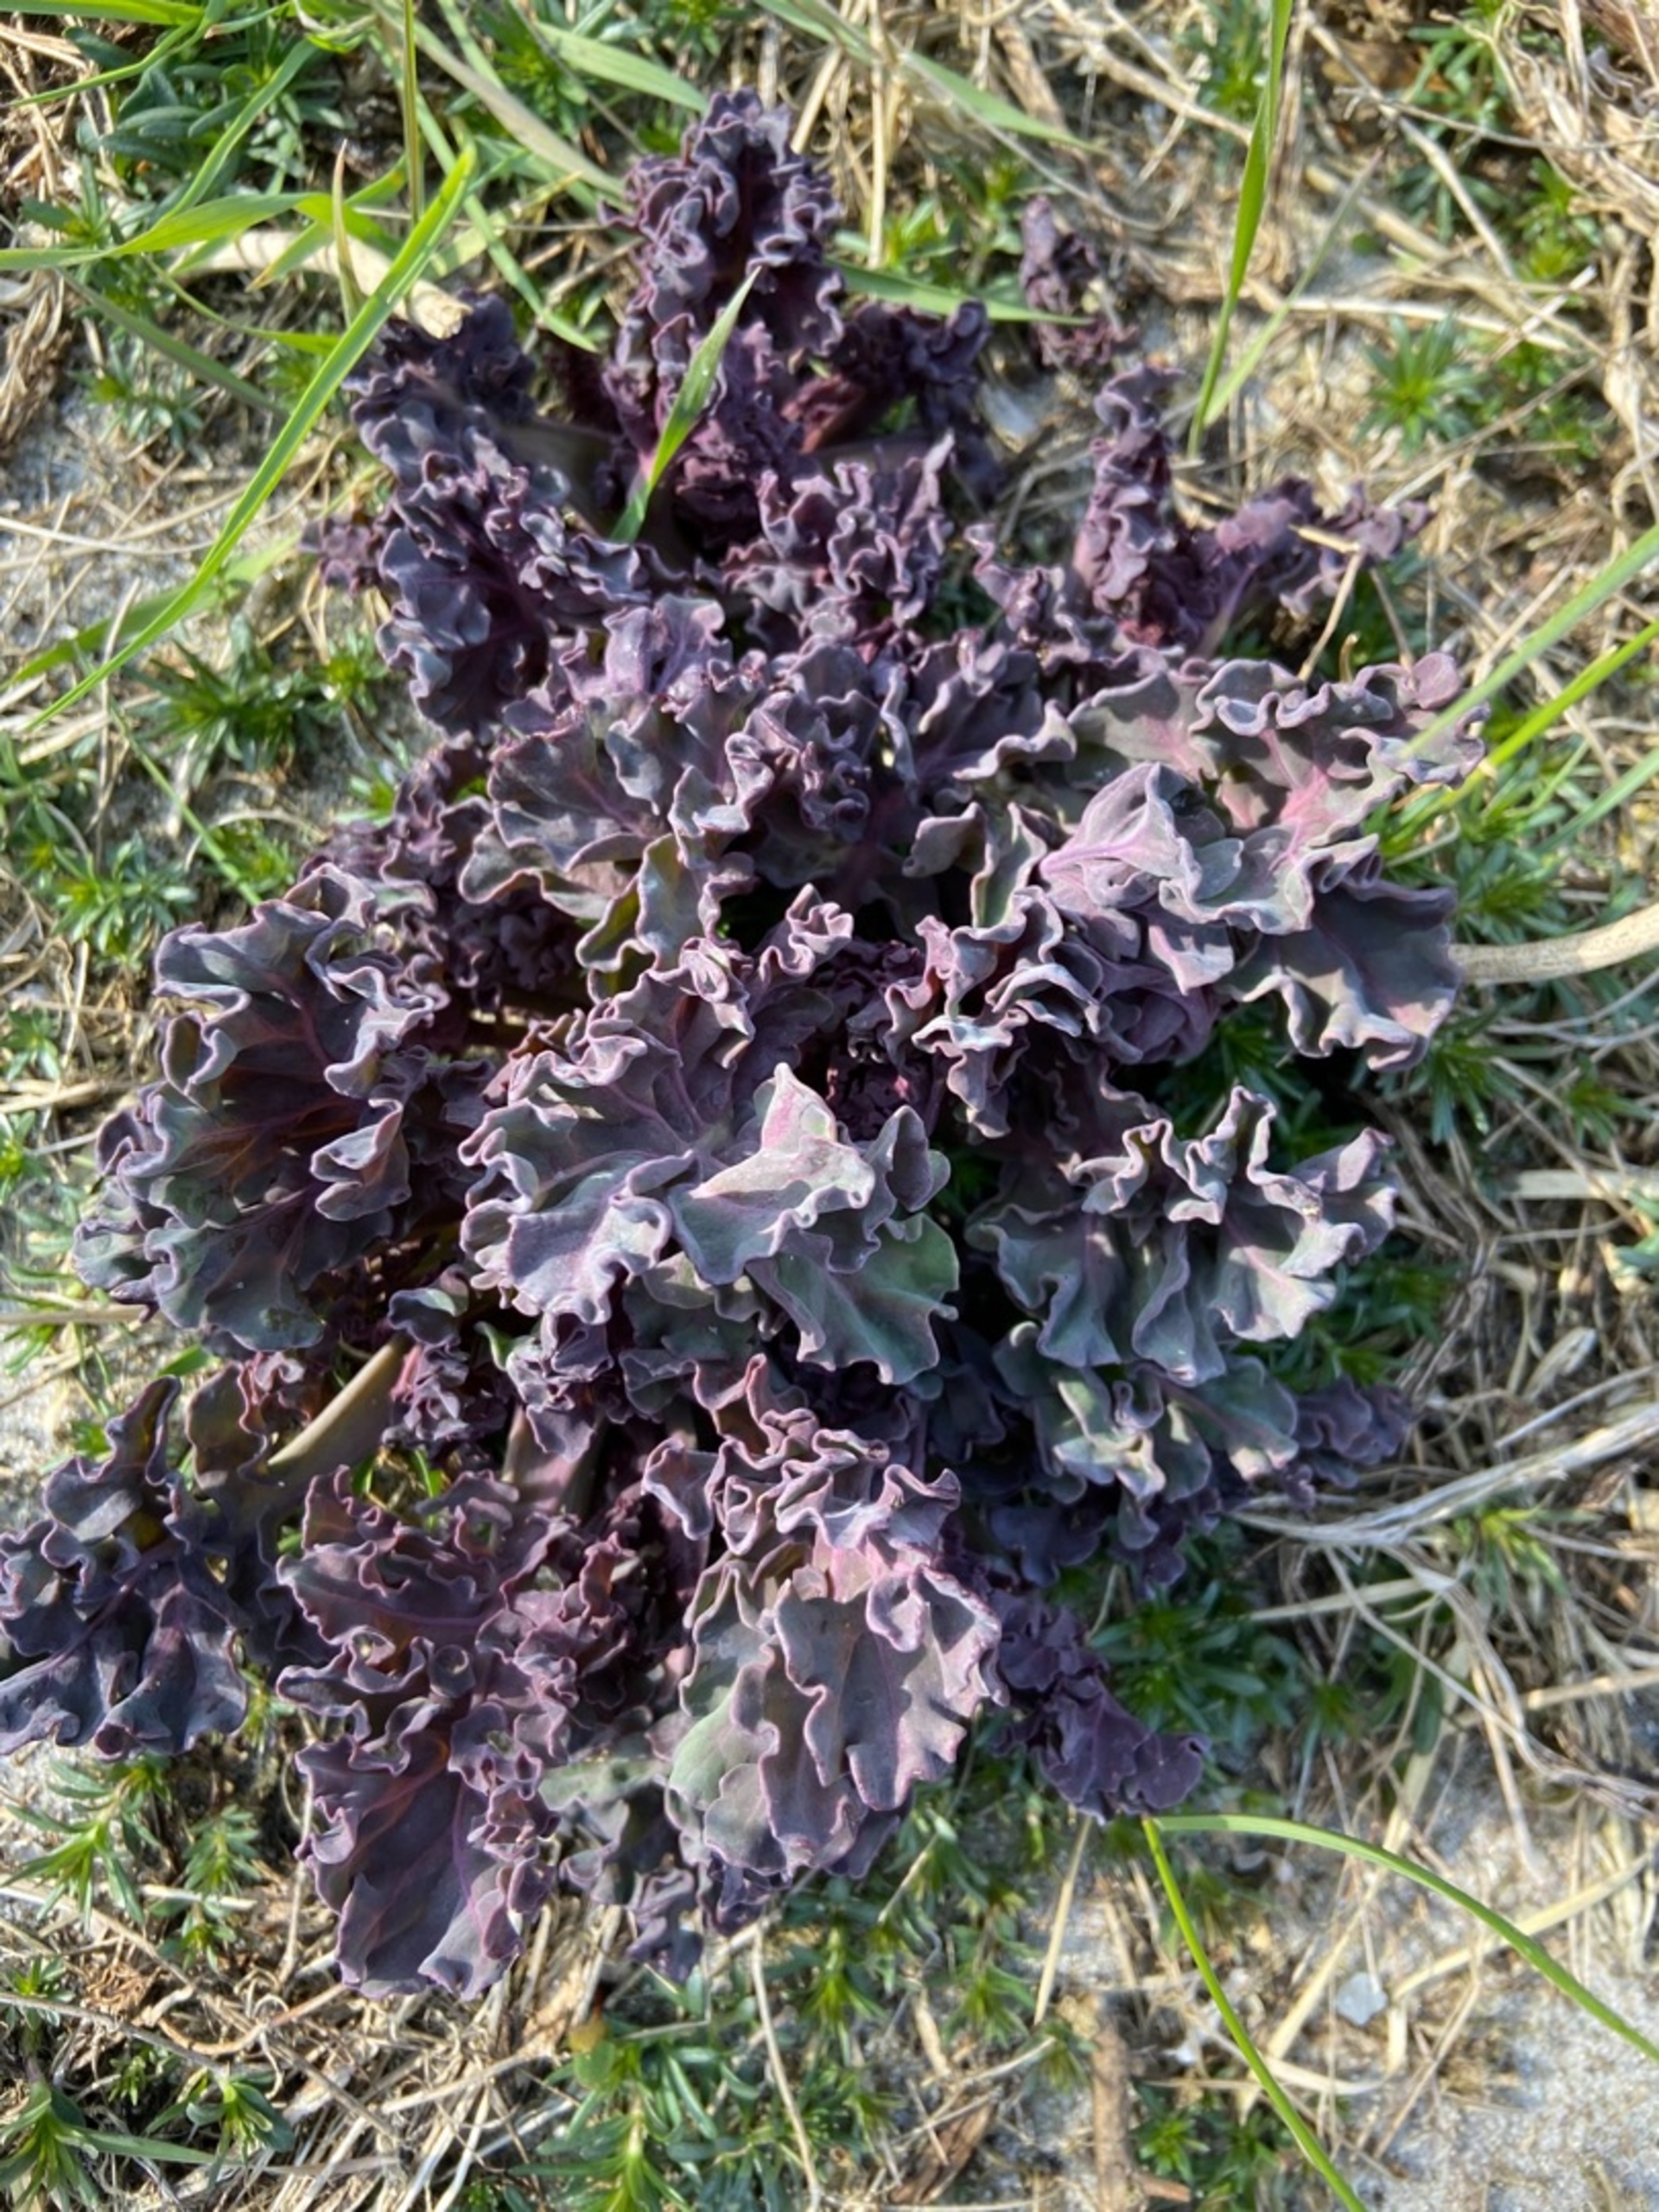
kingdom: Plantae
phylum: Tracheophyta
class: Magnoliopsida
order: Brassicales
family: Brassicaceae
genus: Crambe
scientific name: Crambe maritima
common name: Strandkål
